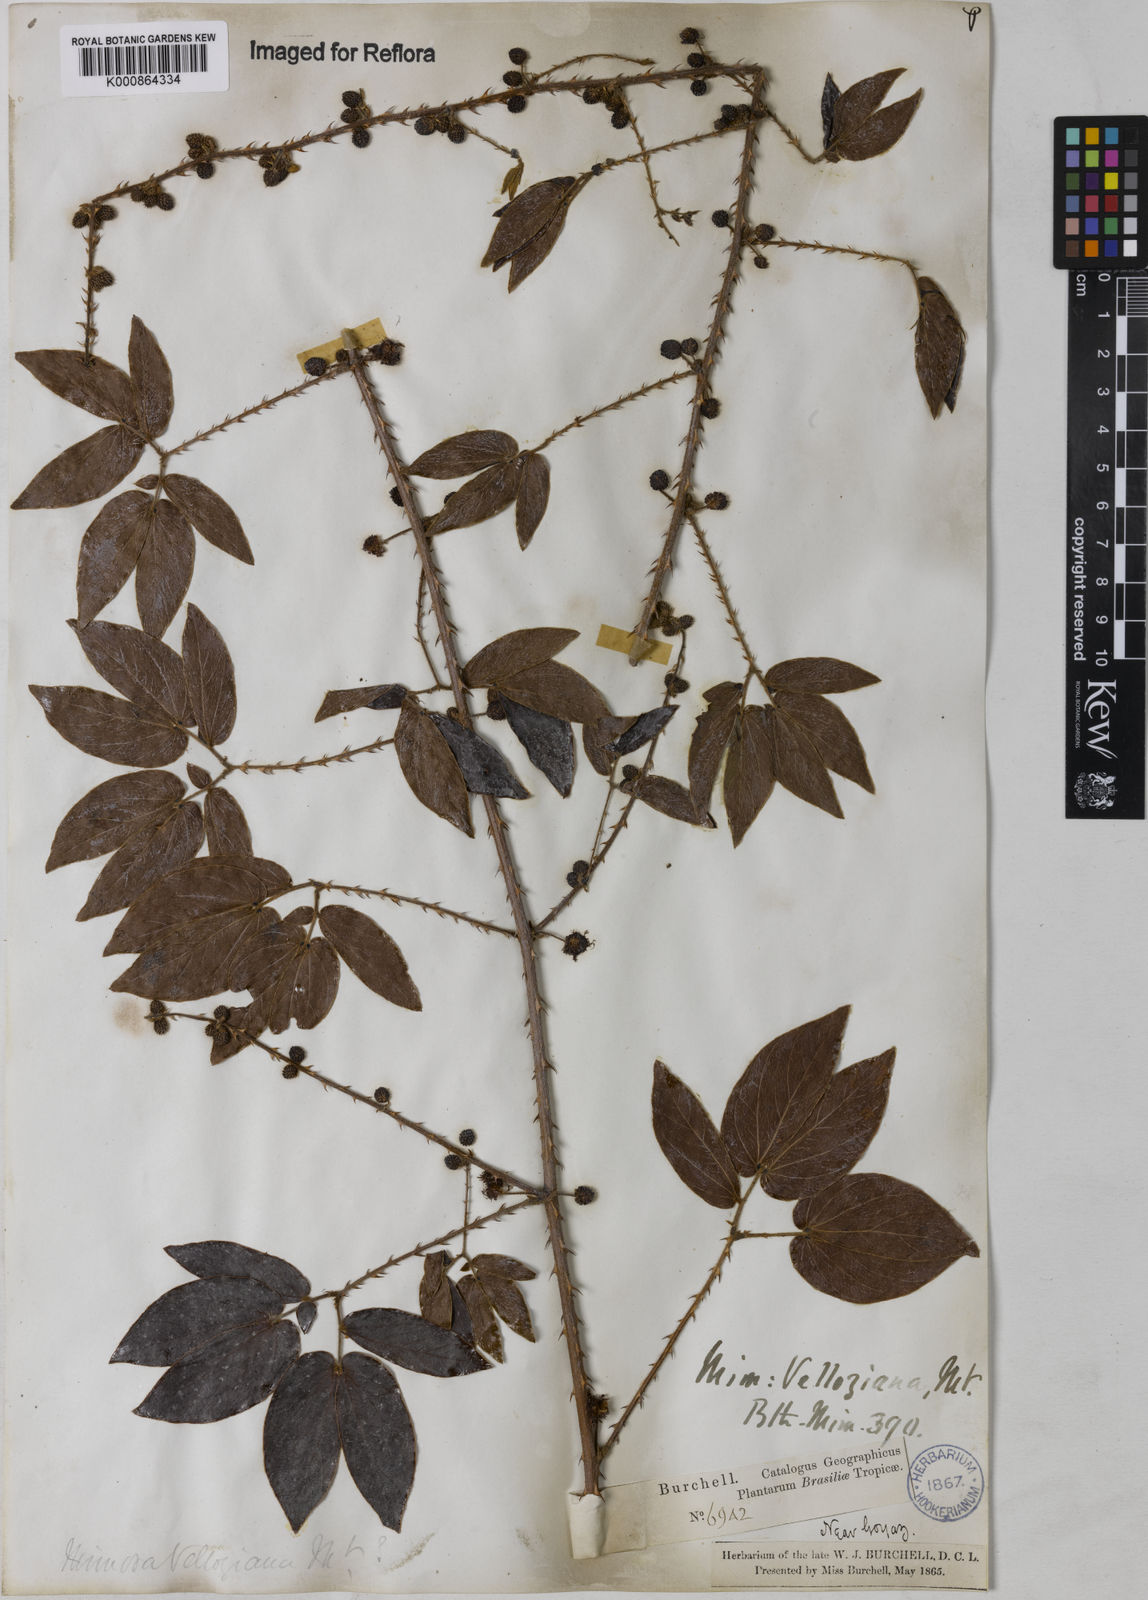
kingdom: Plantae
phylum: Tracheophyta
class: Magnoliopsida
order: Fabales
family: Fabaceae
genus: Mimosa
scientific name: Mimosa velloziana
